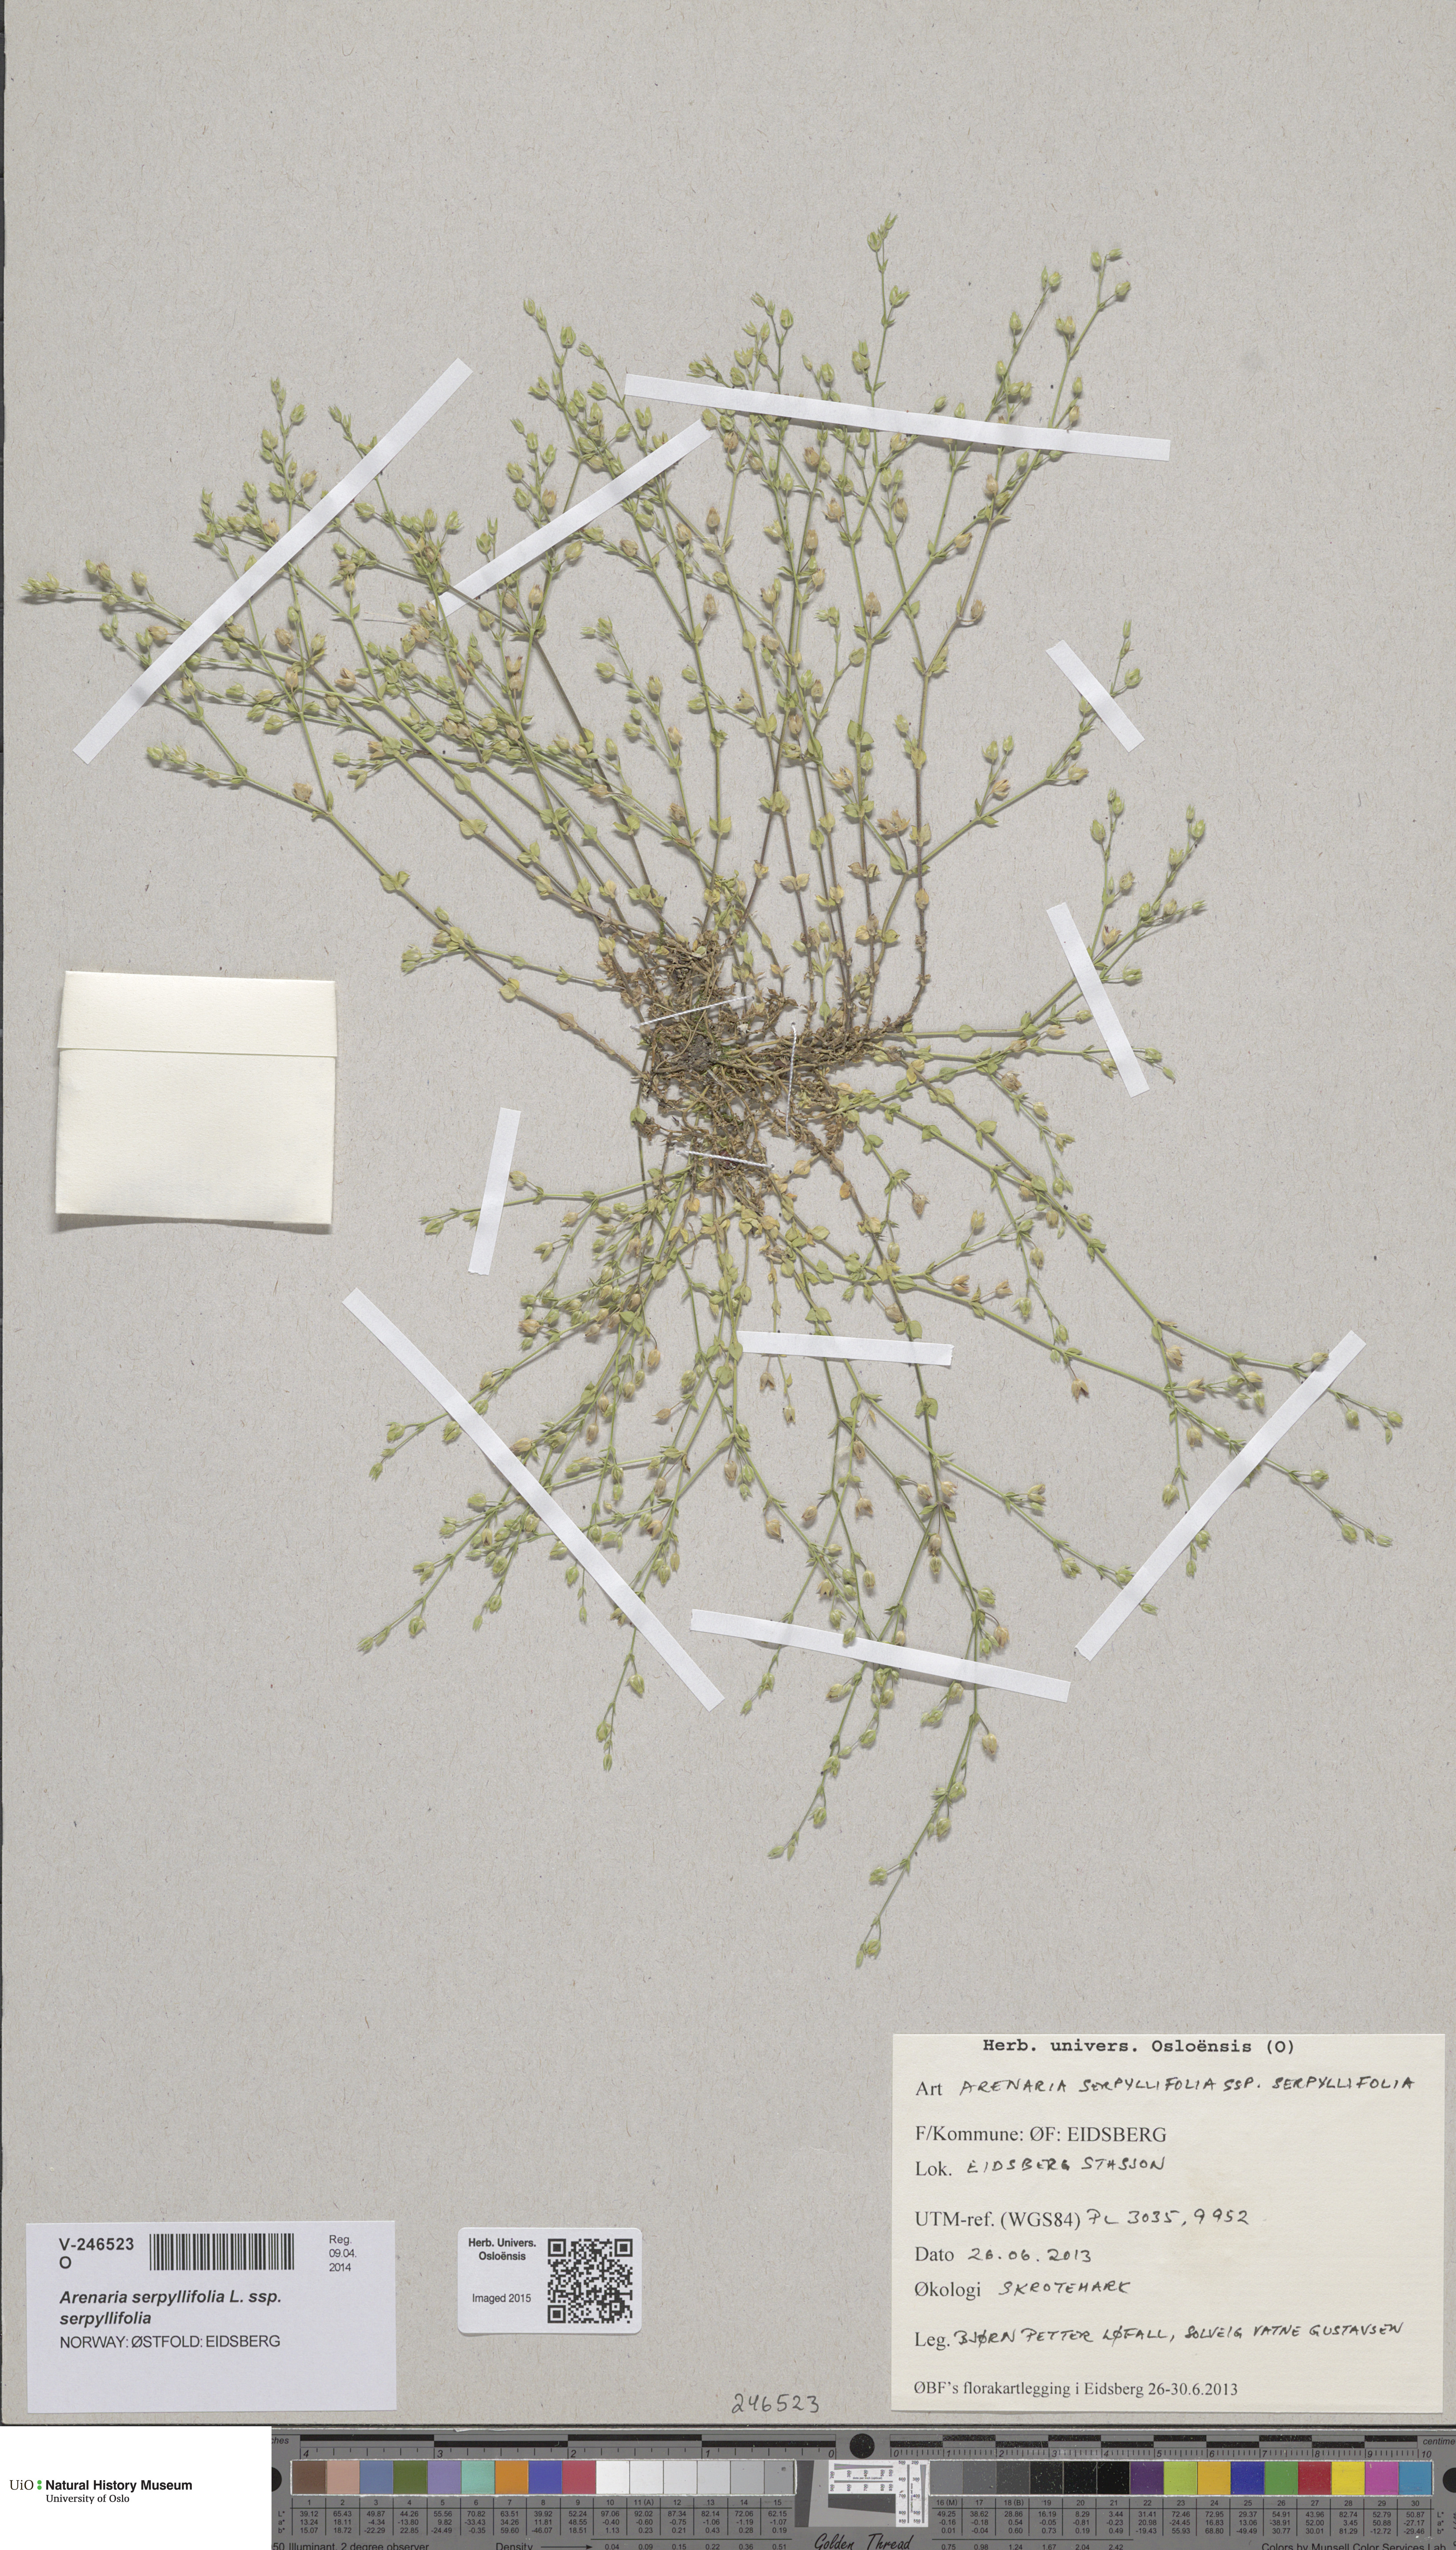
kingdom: Plantae
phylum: Tracheophyta
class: Magnoliopsida
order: Caryophyllales
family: Caryophyllaceae
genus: Arenaria
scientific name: Arenaria serpyllifolia
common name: Thyme-leaved sandwort
